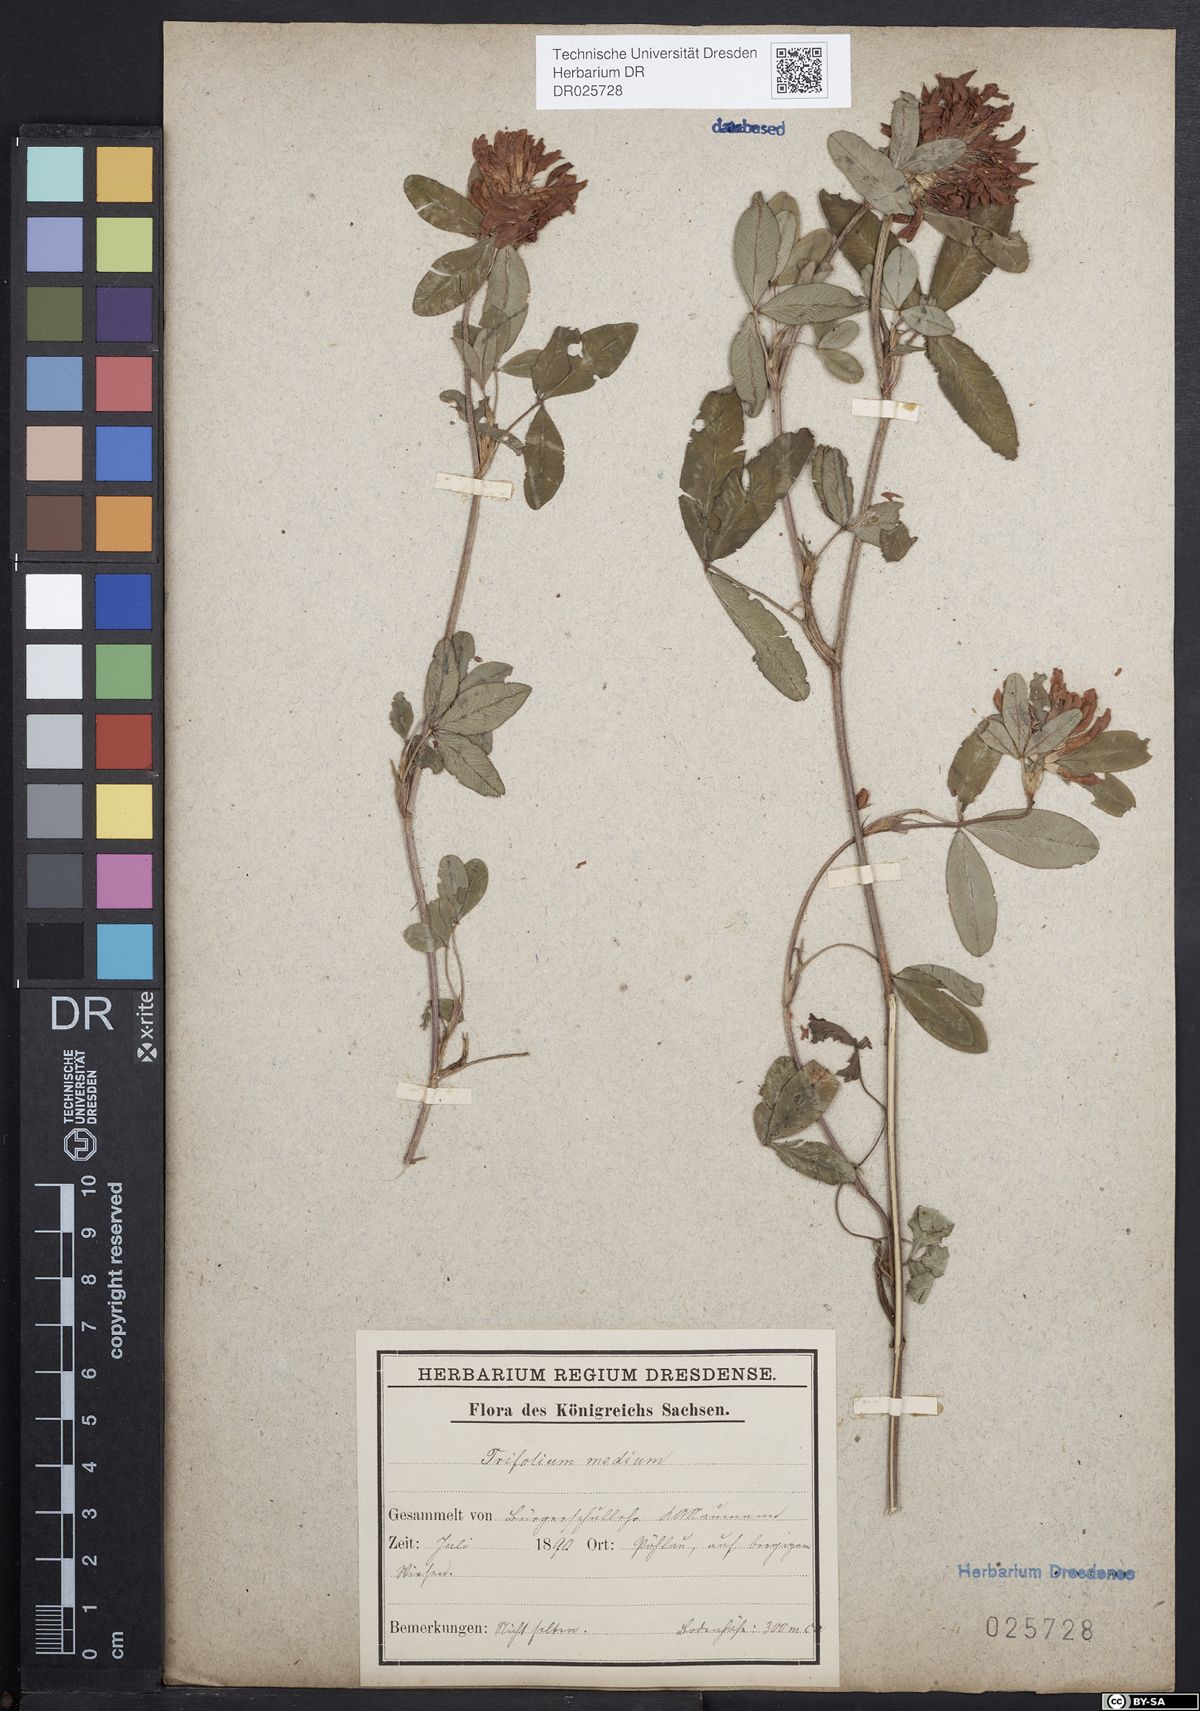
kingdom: Plantae
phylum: Tracheophyta
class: Magnoliopsida
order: Fabales
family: Fabaceae
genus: Trifolium
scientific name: Trifolium medium
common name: Zigzag clover
